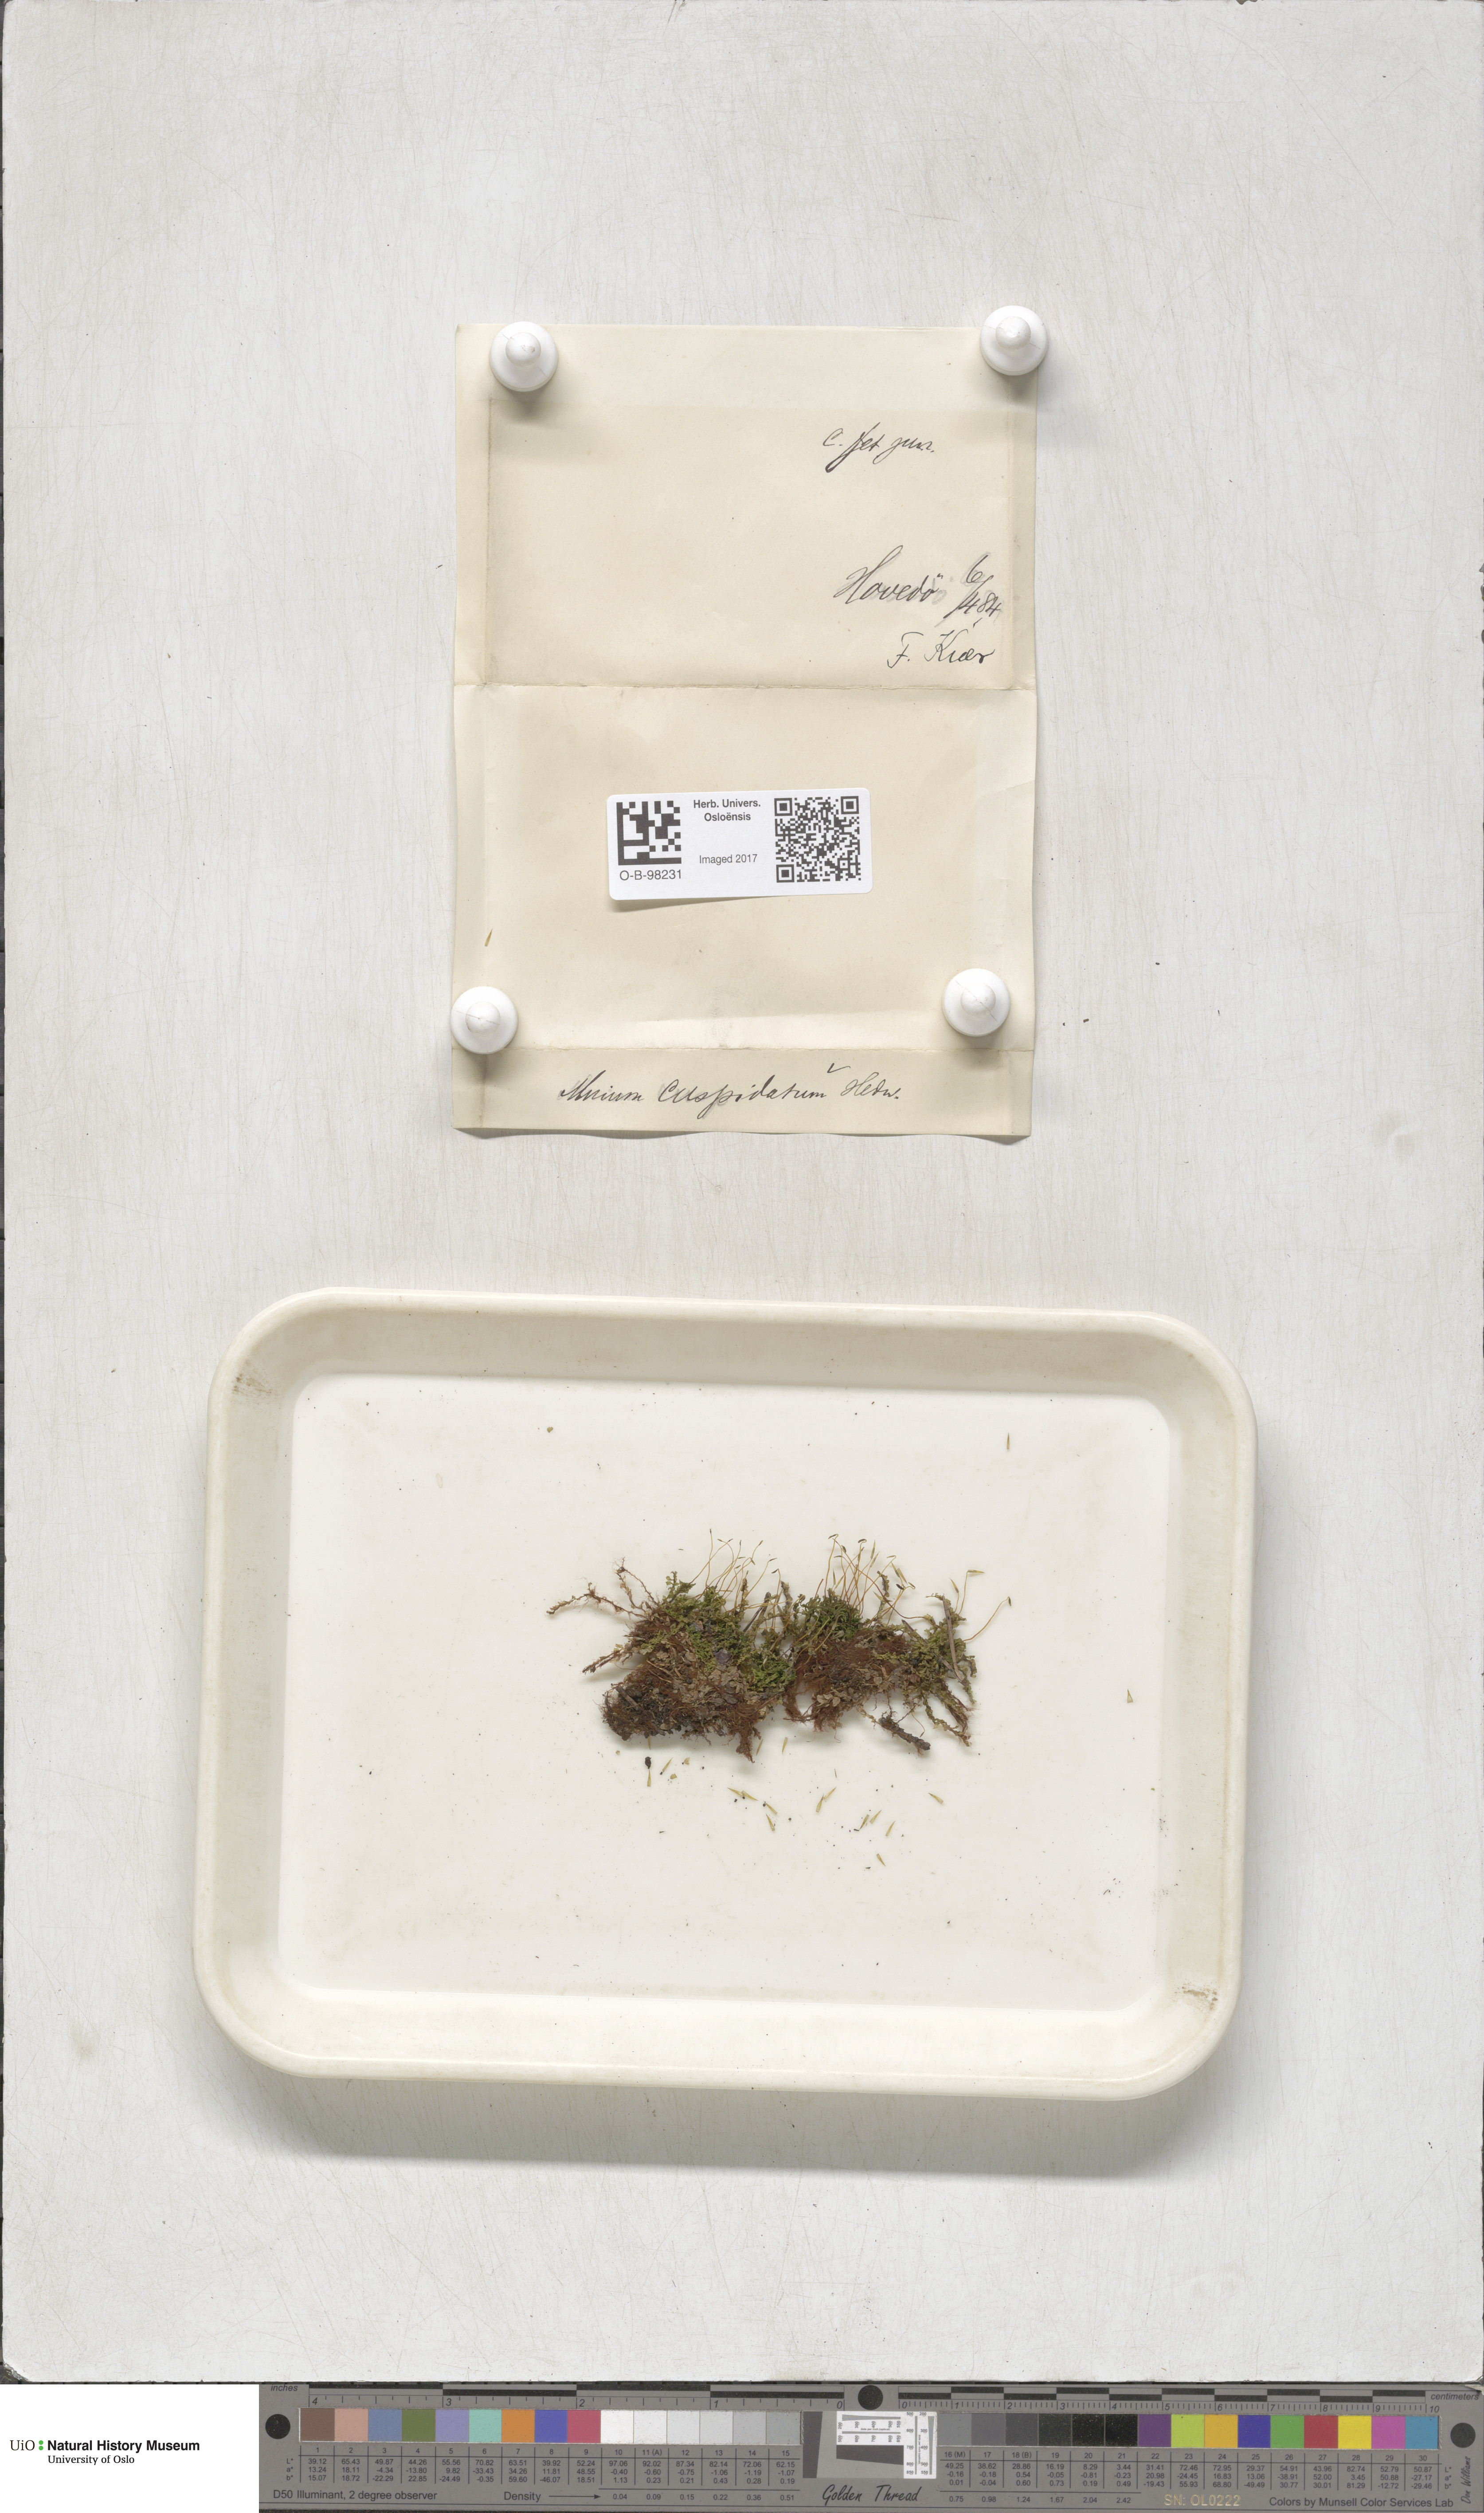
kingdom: Plantae
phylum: Bryophyta
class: Bryopsida
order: Bryales
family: Mniaceae
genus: Plagiomnium
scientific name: Plagiomnium cuspidatum
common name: Woodsy leafy moss
